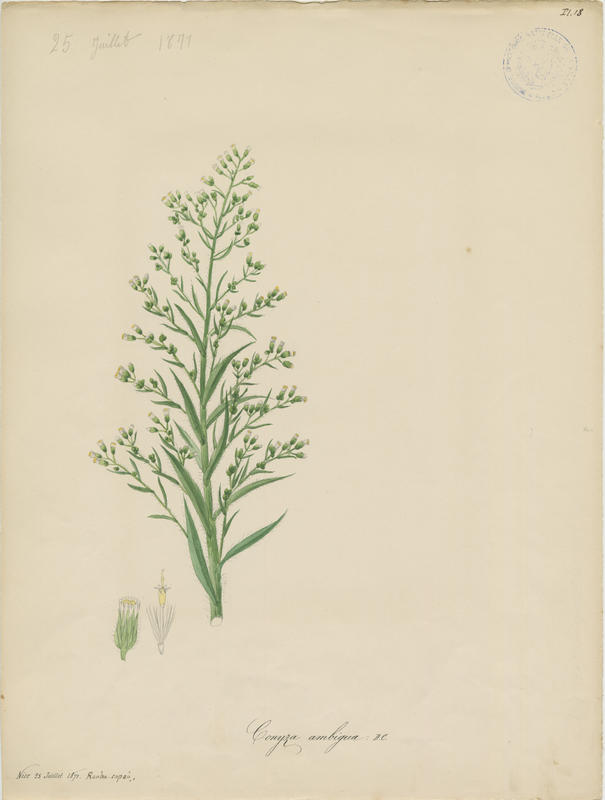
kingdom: Plantae
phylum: Tracheophyta
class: Magnoliopsida
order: Asterales
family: Asteraceae
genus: Erigeron
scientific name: Erigeron bonariensis
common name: Argentine fleabane
